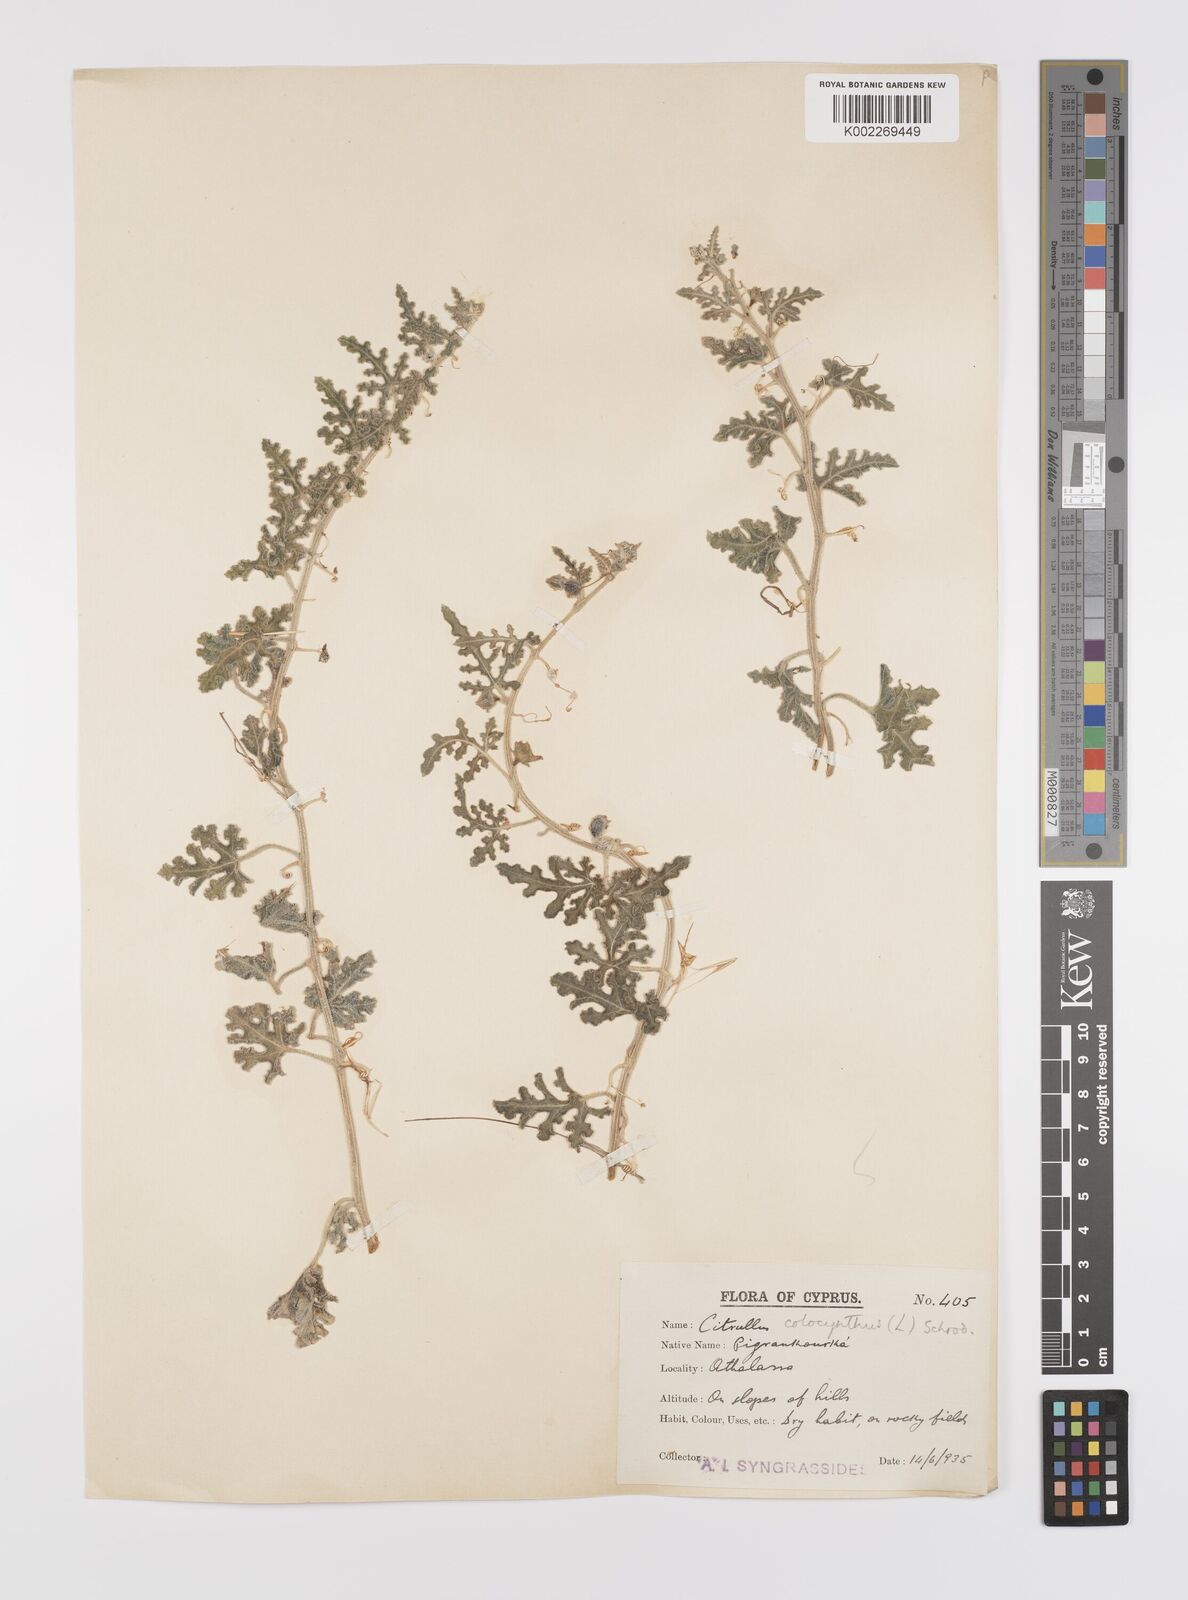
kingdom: Plantae
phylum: Tracheophyta
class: Magnoliopsida
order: Cucurbitales
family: Cucurbitaceae
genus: Citrullus
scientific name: Citrullus colocynthis
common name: Colocynth
